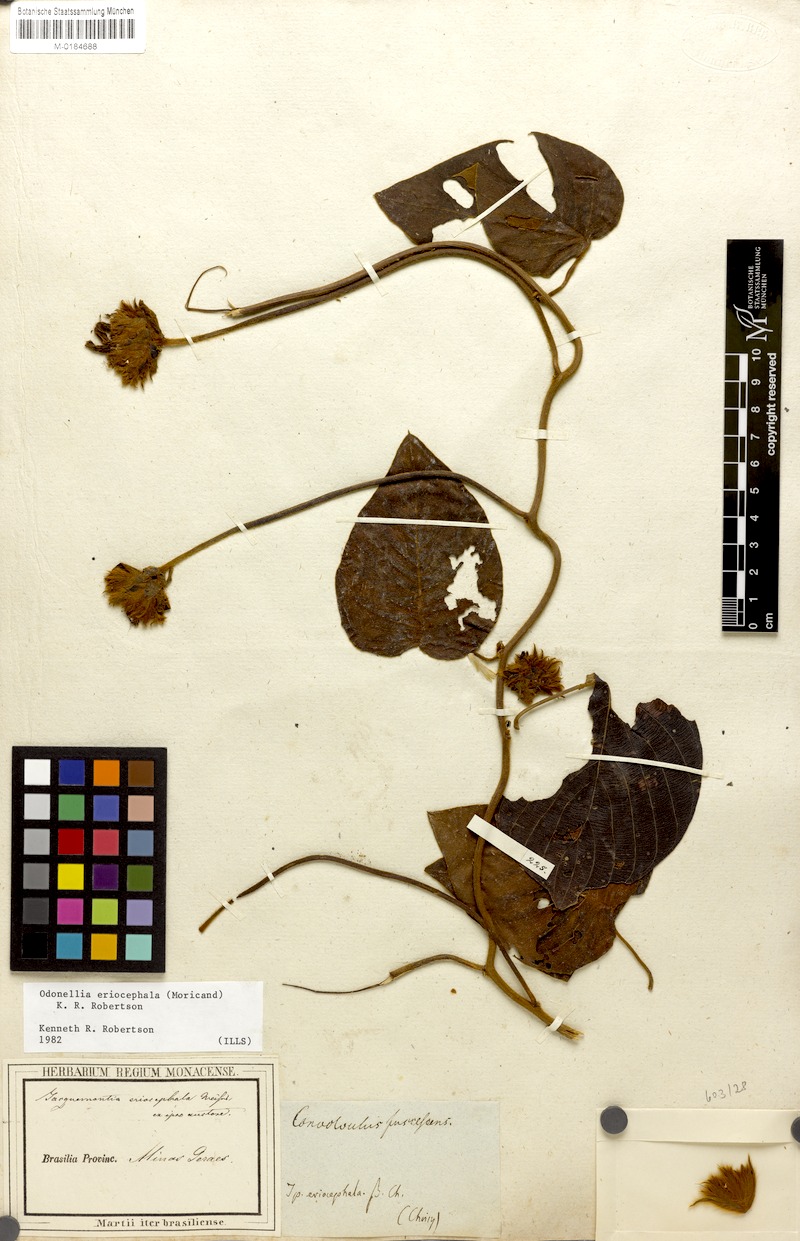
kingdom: Plantae
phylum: Tracheophyta
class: Magnoliopsida
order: Solanales
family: Convolvulaceae
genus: Odonellia
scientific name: Odonellia eriocephala
